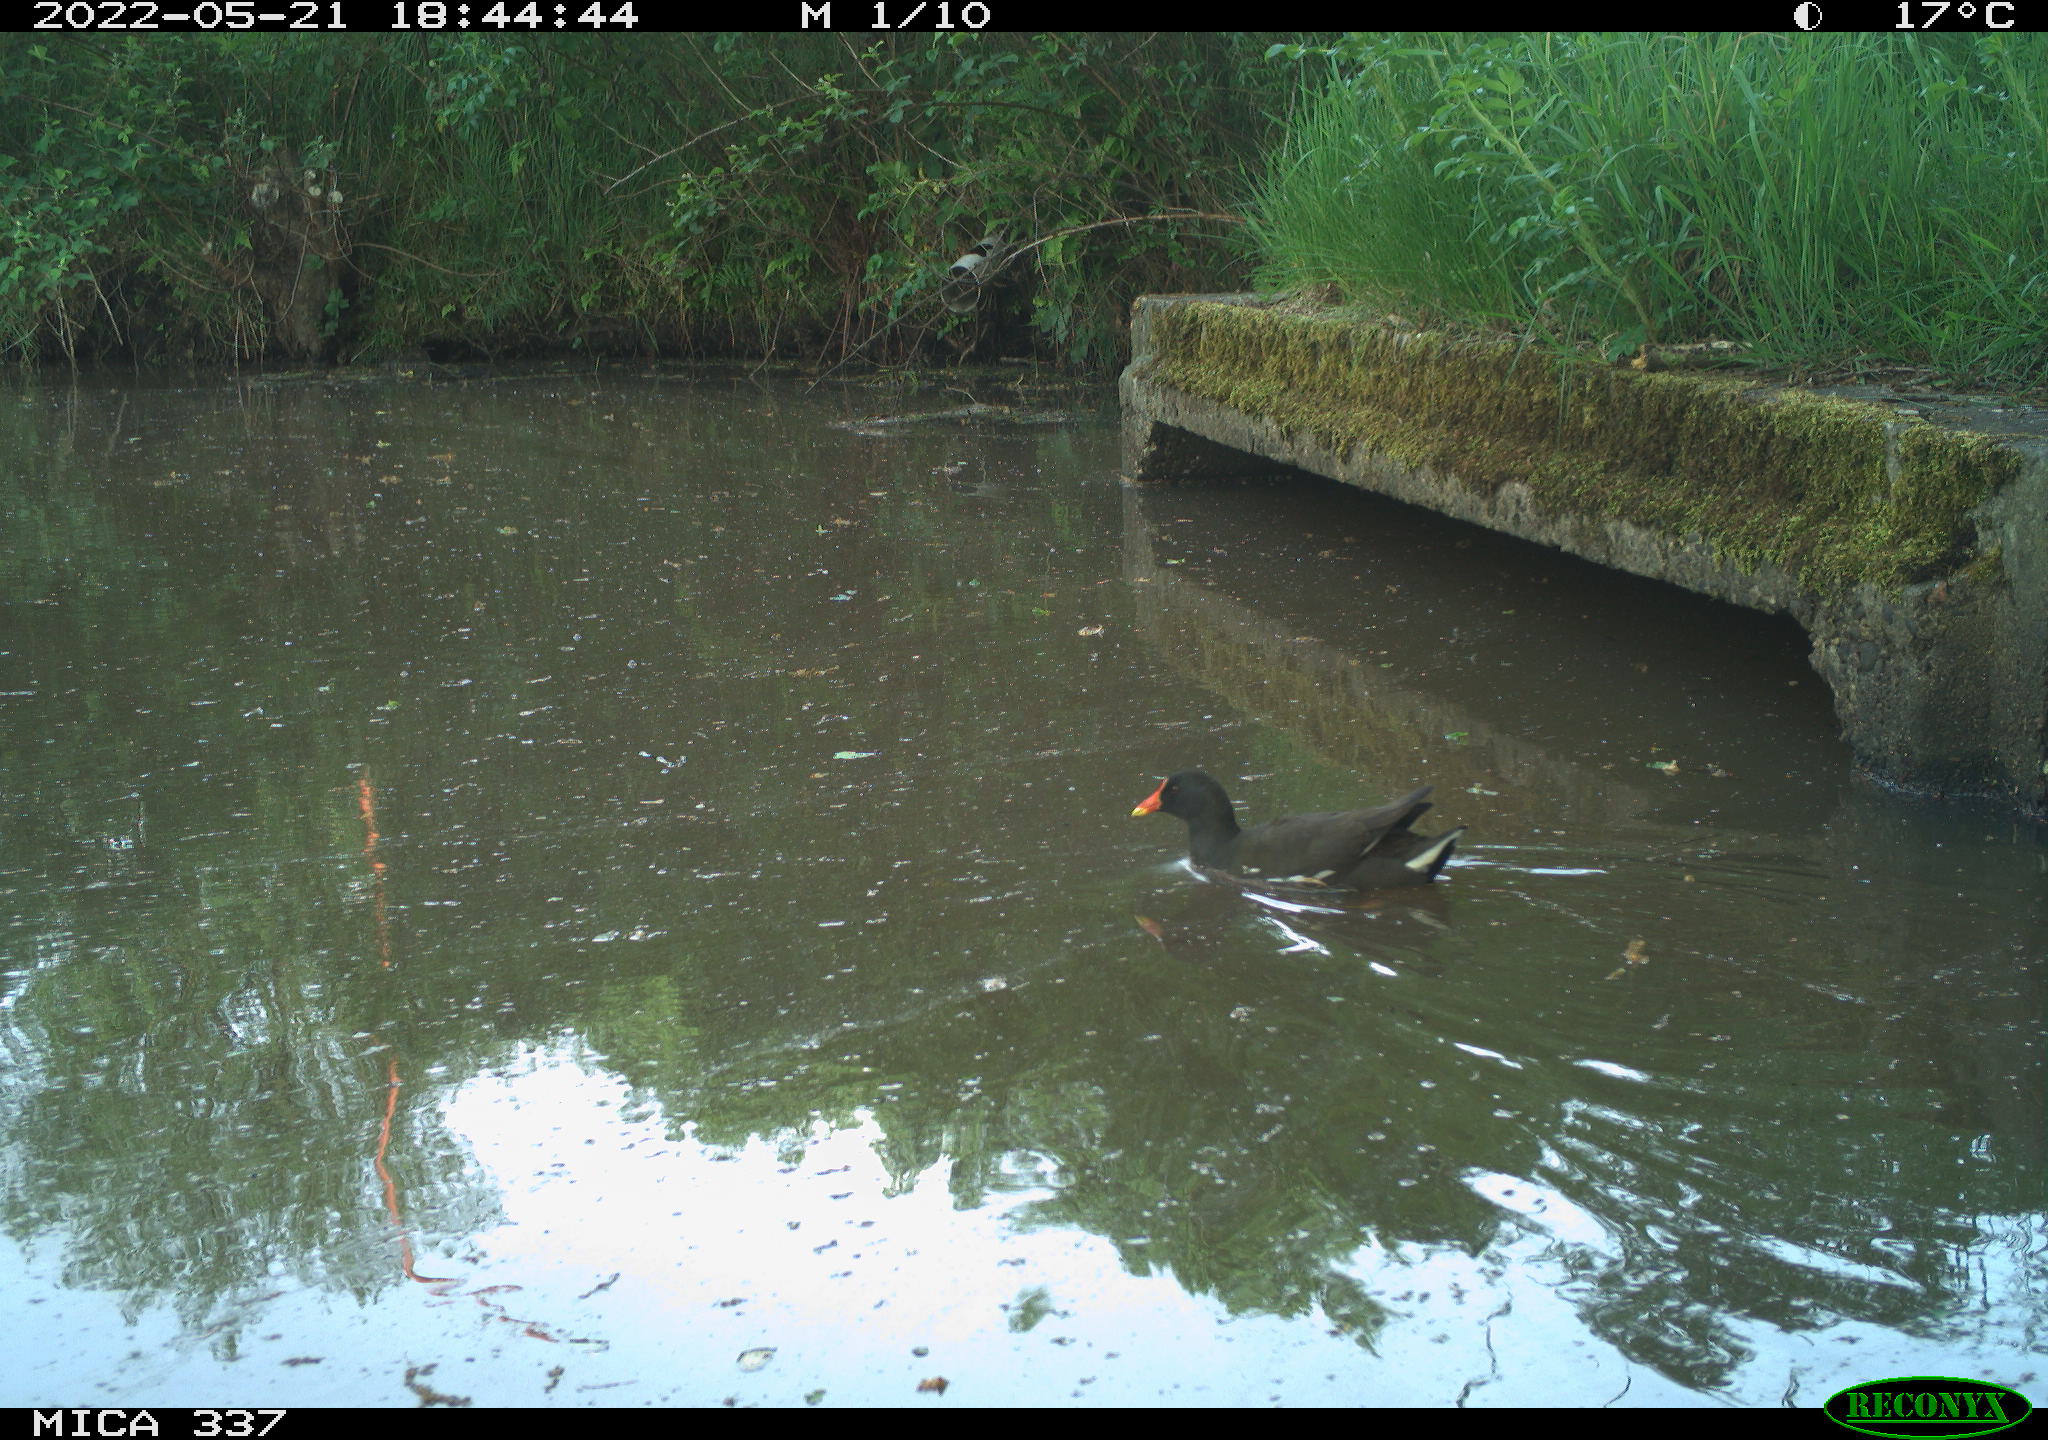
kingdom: Animalia
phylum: Chordata
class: Aves
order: Gruiformes
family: Rallidae
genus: Gallinula
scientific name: Gallinula chloropus
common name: Common moorhen
